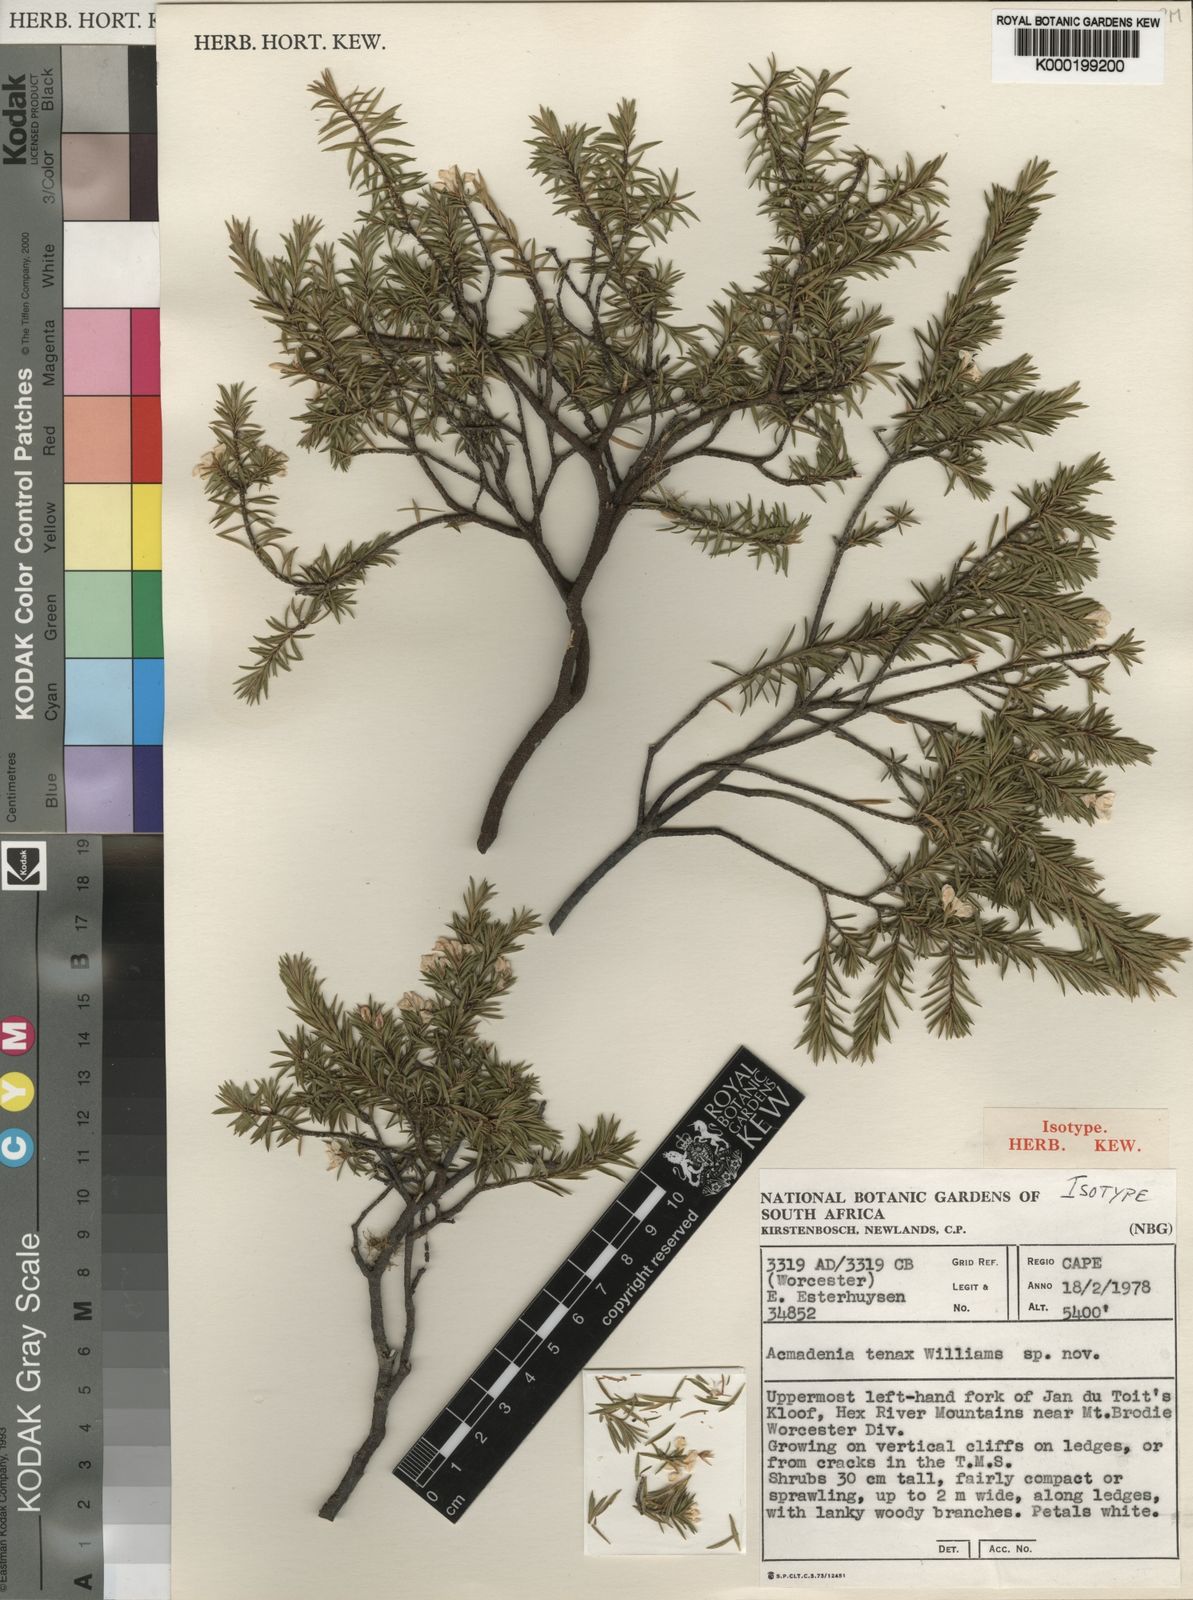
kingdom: Plantae
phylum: Tracheophyta
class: Magnoliopsida
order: Sapindales
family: Rutaceae
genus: Acmadenia
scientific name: Acmadenia tenax
